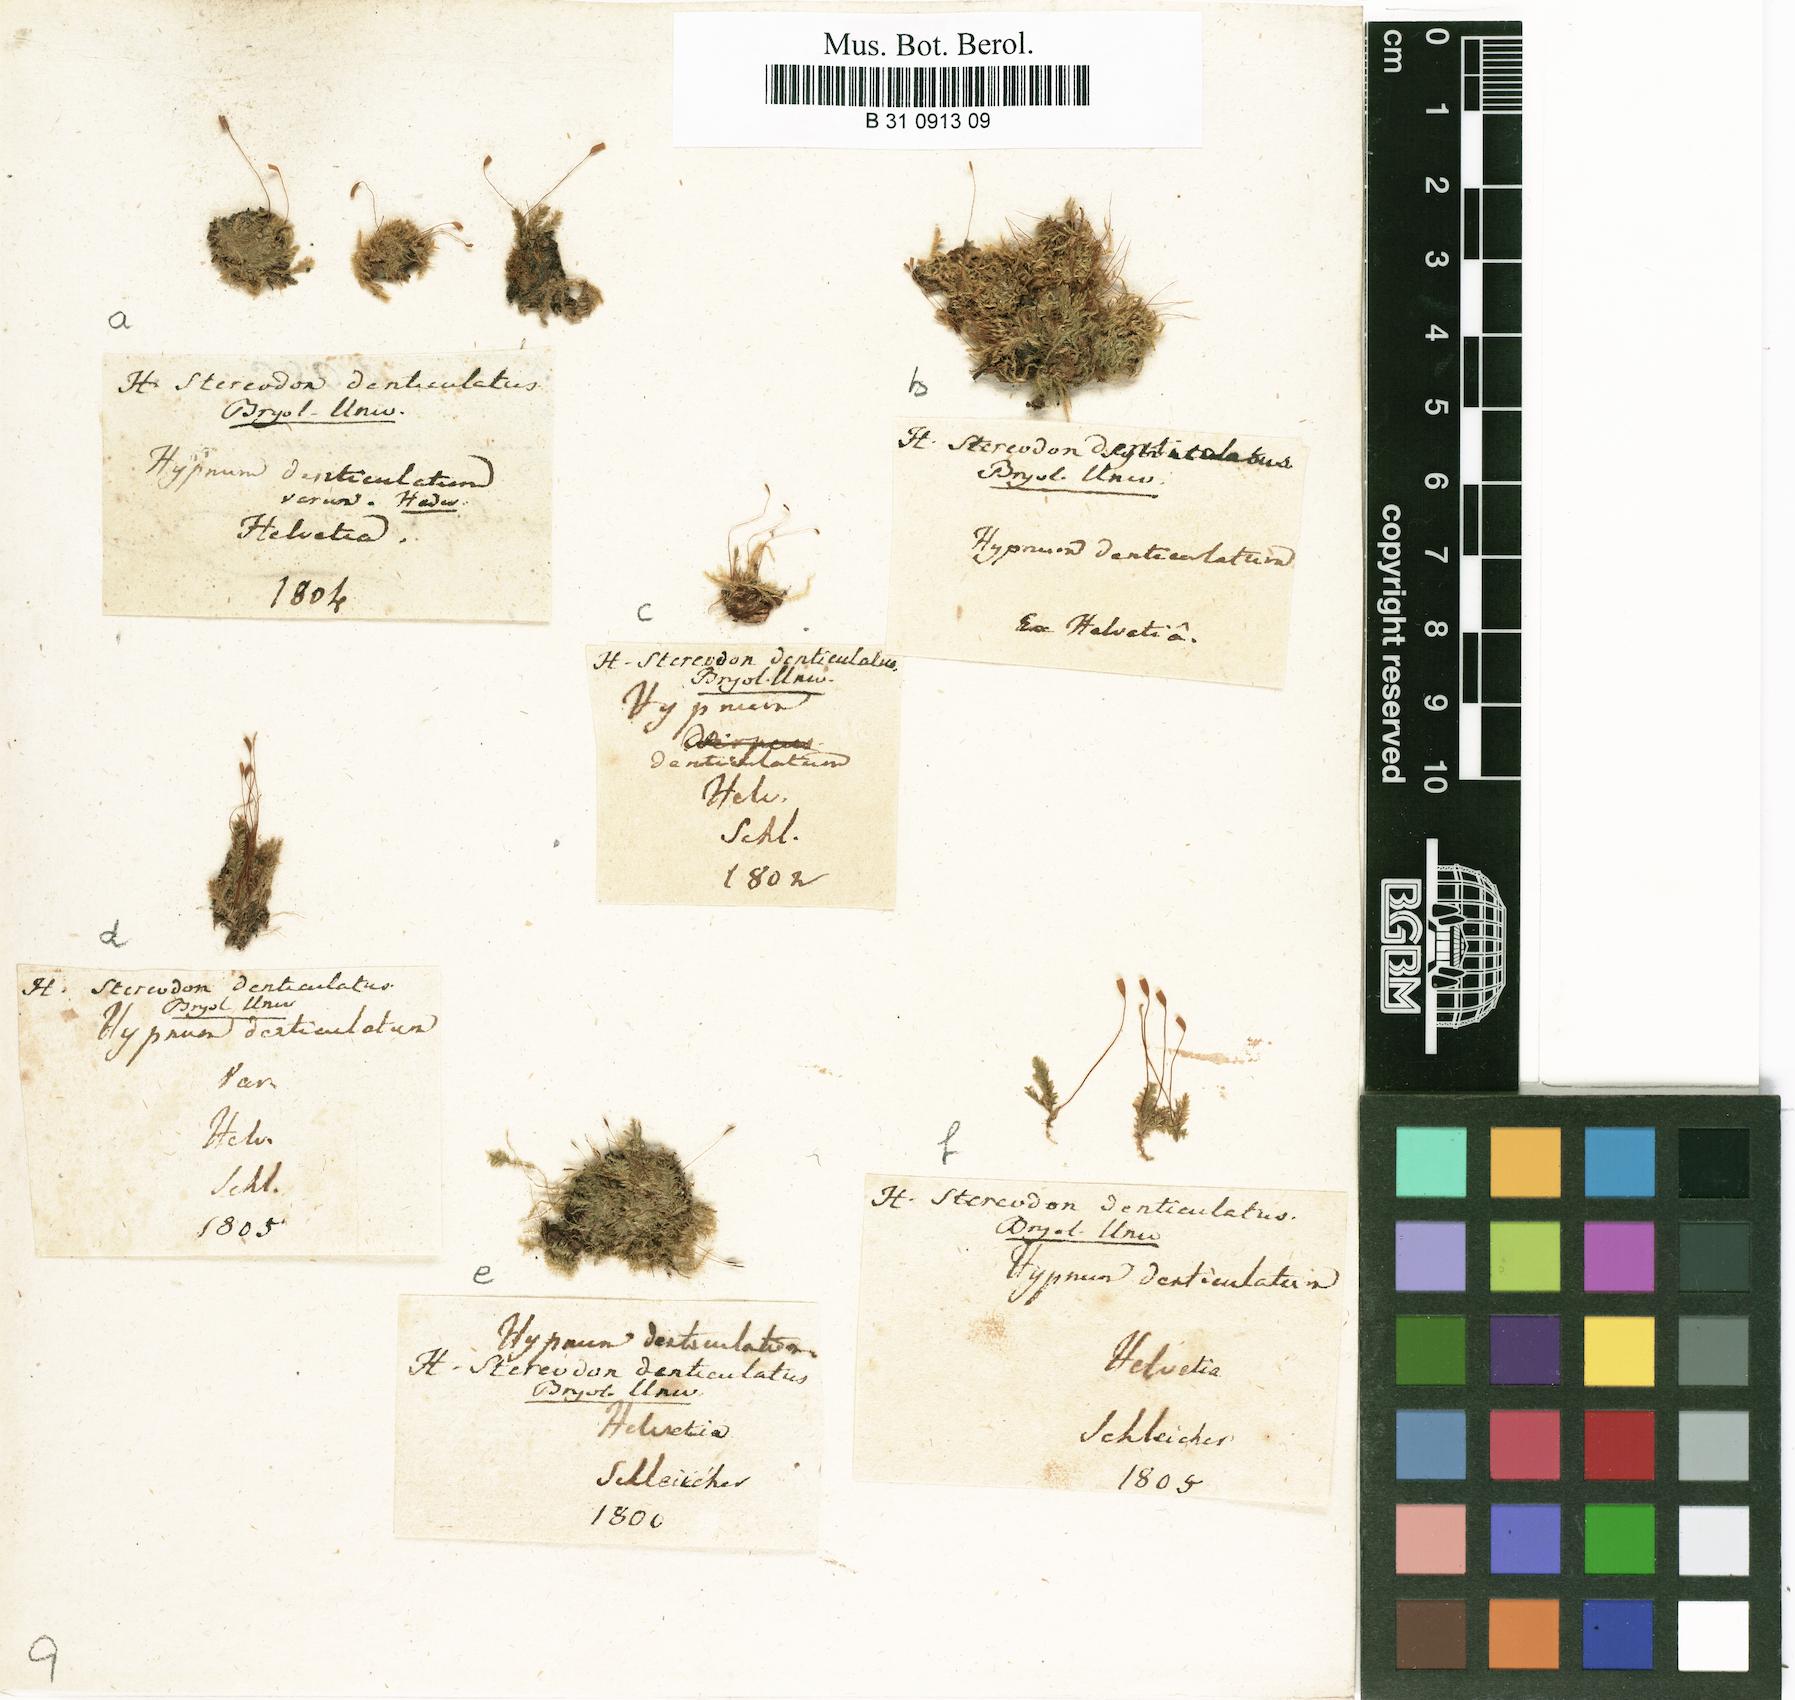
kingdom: Plantae
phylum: Bryophyta
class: Bryopsida
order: Hypnales
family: Plagiotheciaceae
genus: Plagiothecium
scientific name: Plagiothecium denticulatum
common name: Dented silk moss
